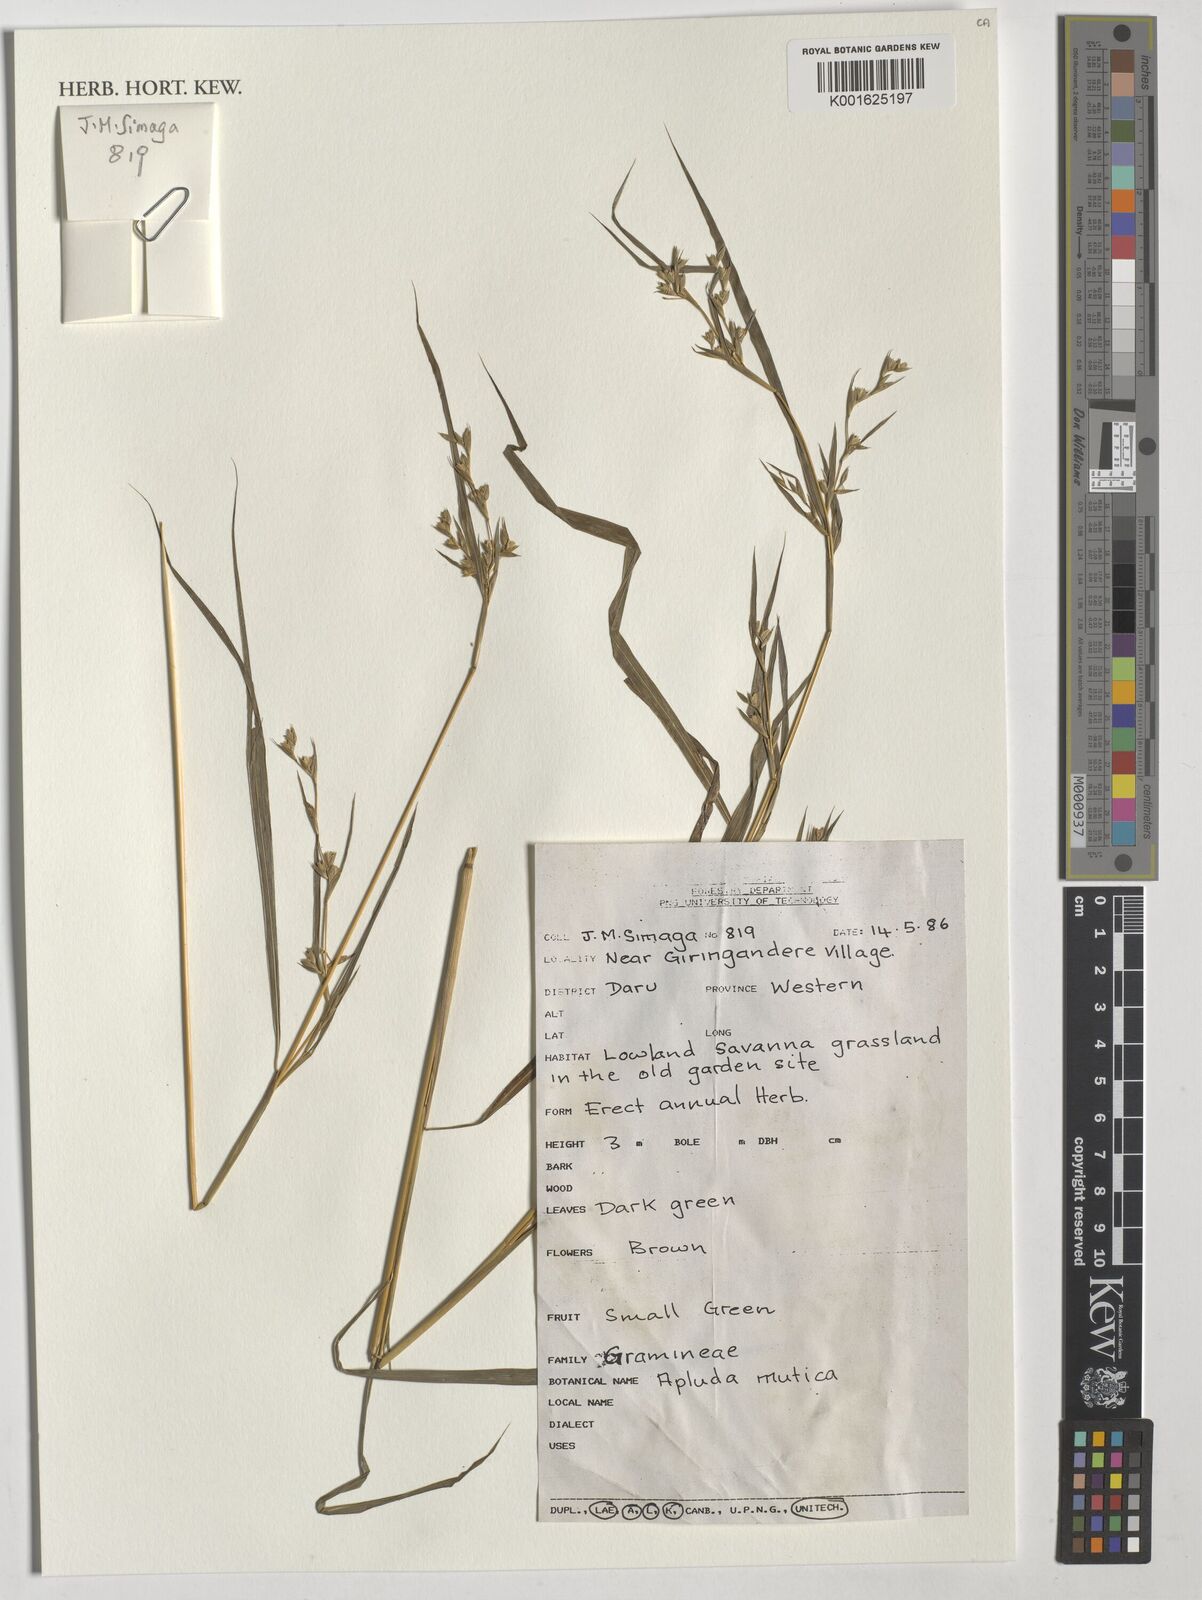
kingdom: Plantae
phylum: Tracheophyta
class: Liliopsida
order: Poales
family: Poaceae
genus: Apluda
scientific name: Apluda mutica
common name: Mauritian grass
